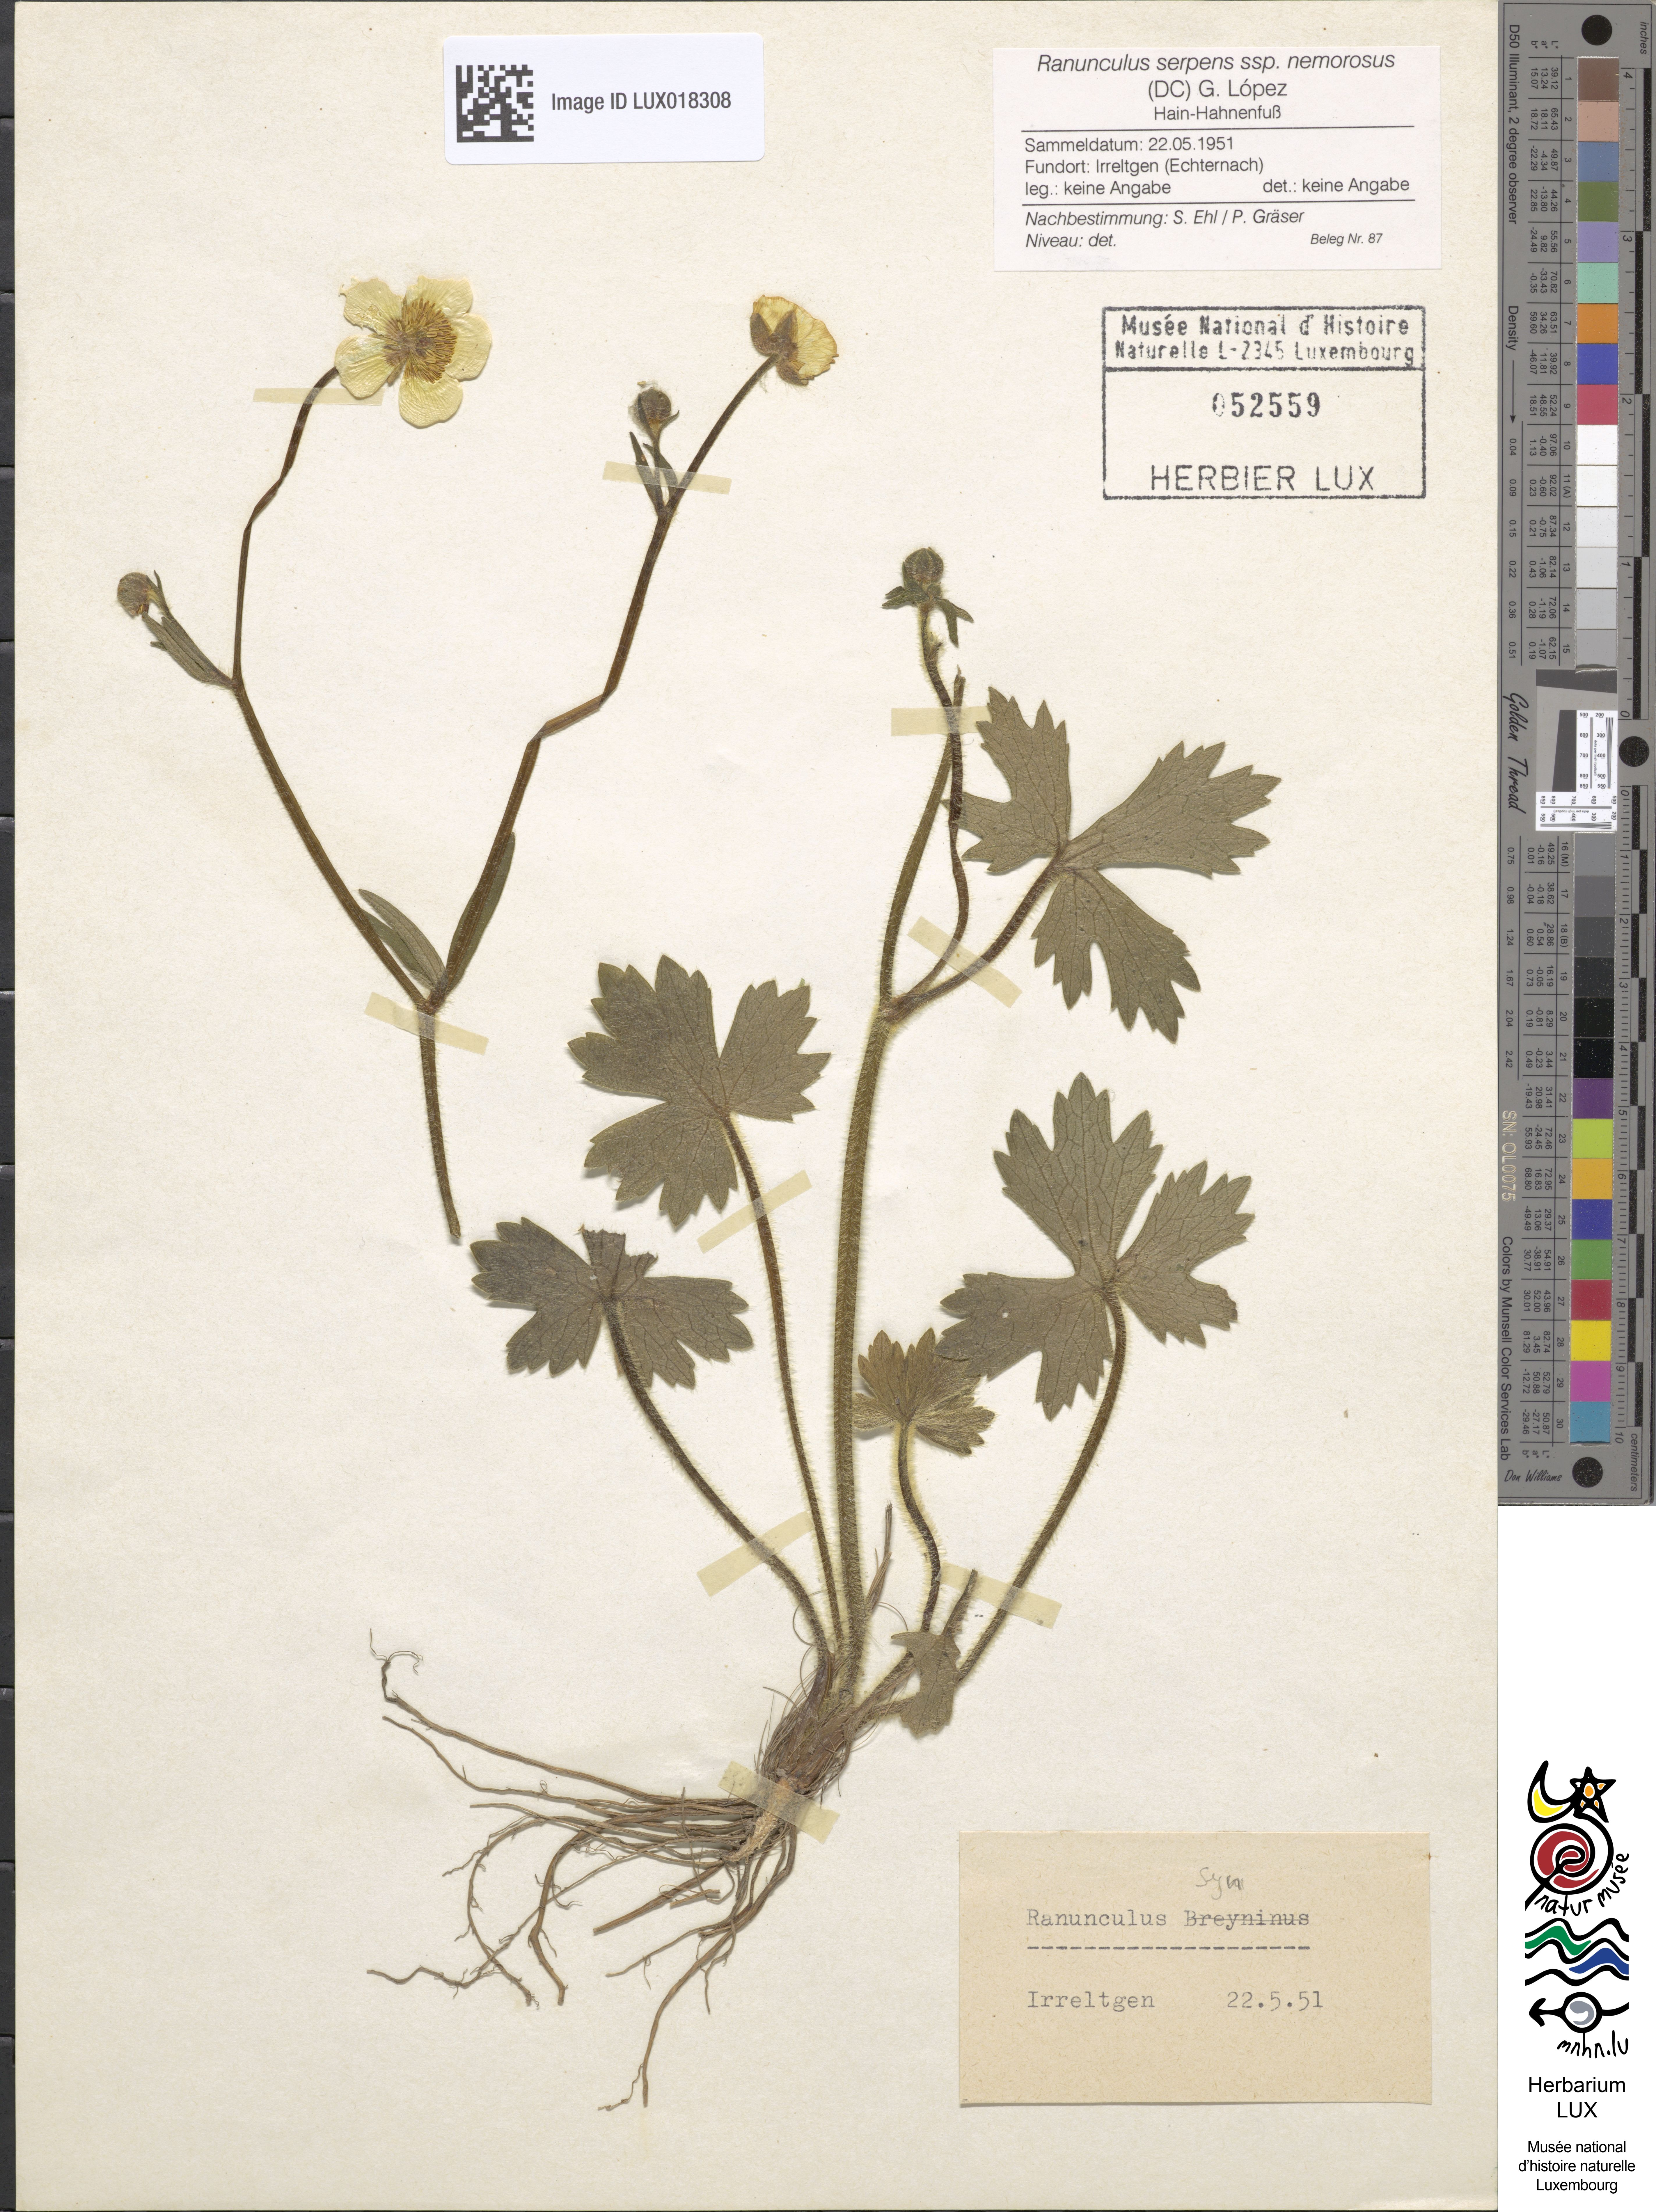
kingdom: Plantae
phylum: Tracheophyta
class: Magnoliopsida
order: Ranunculales
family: Ranunculaceae
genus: Ranunculus
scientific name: Ranunculus polyanthemos
